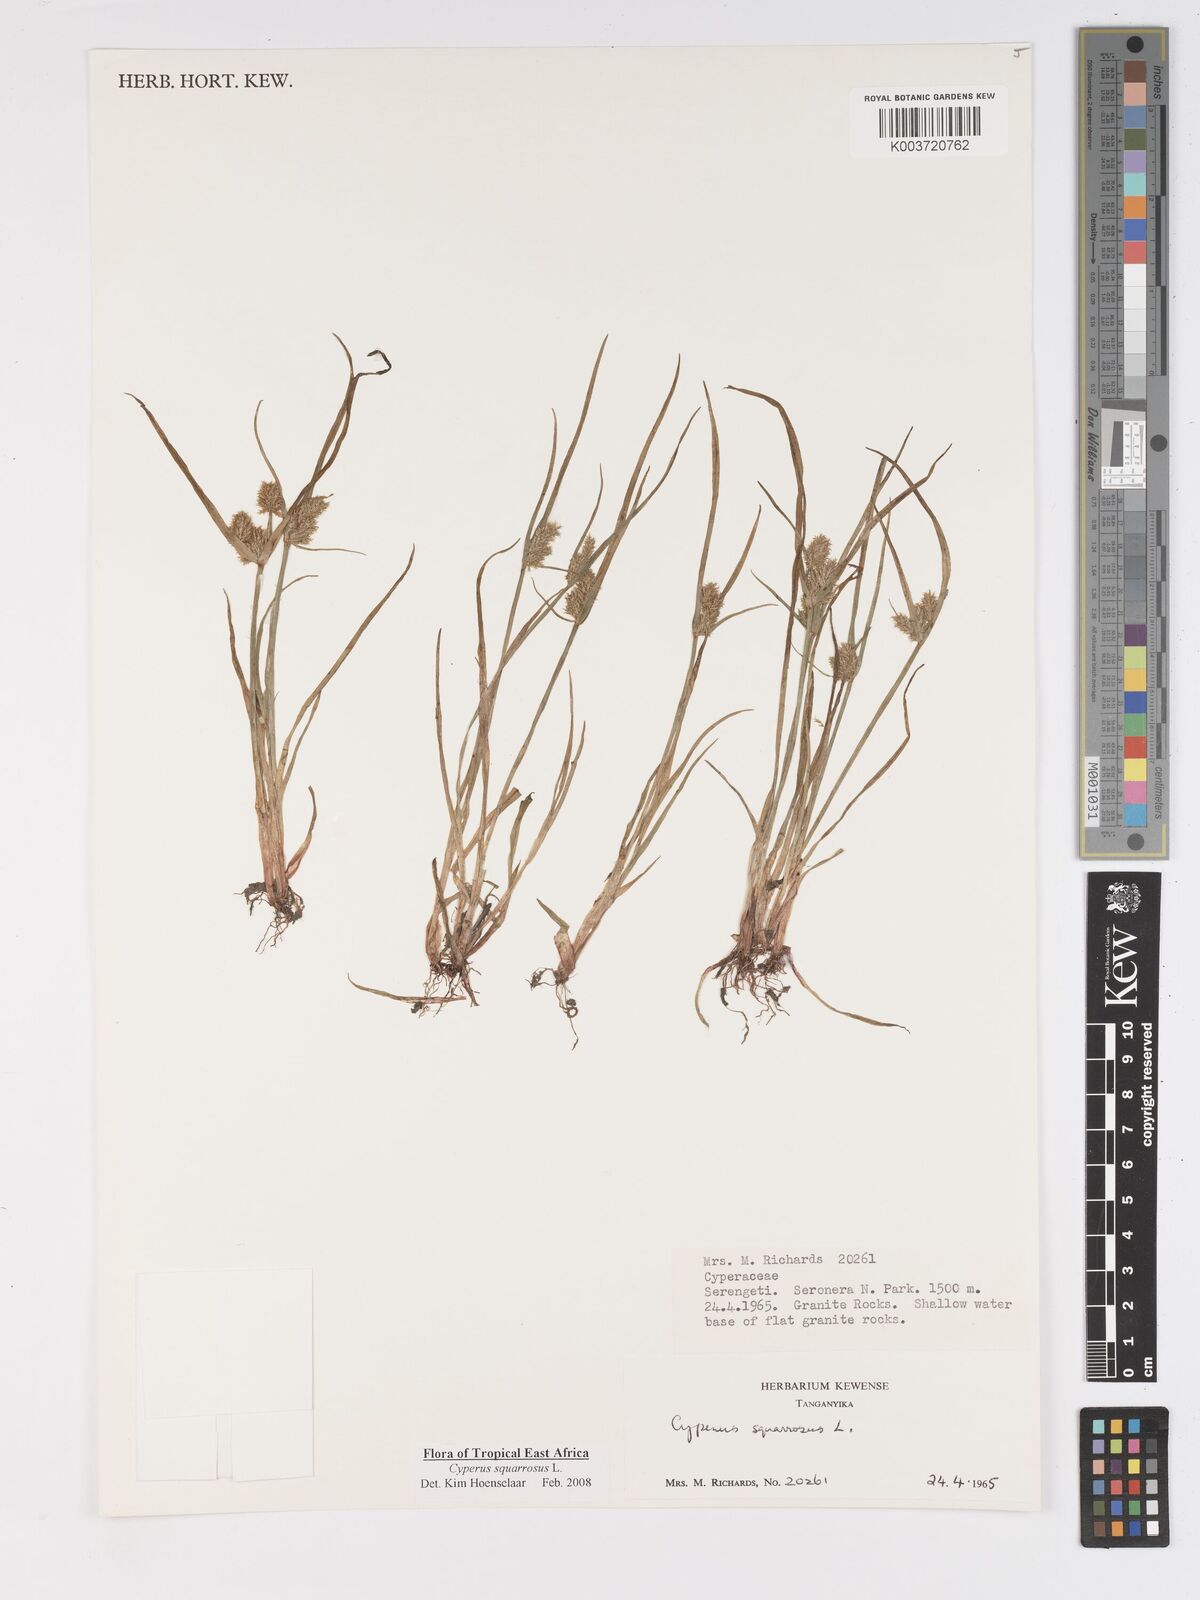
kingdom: Plantae
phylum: Tracheophyta
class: Liliopsida
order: Poales
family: Cyperaceae
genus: Cyperus
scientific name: Cyperus squarrosus
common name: Awned cyperus
